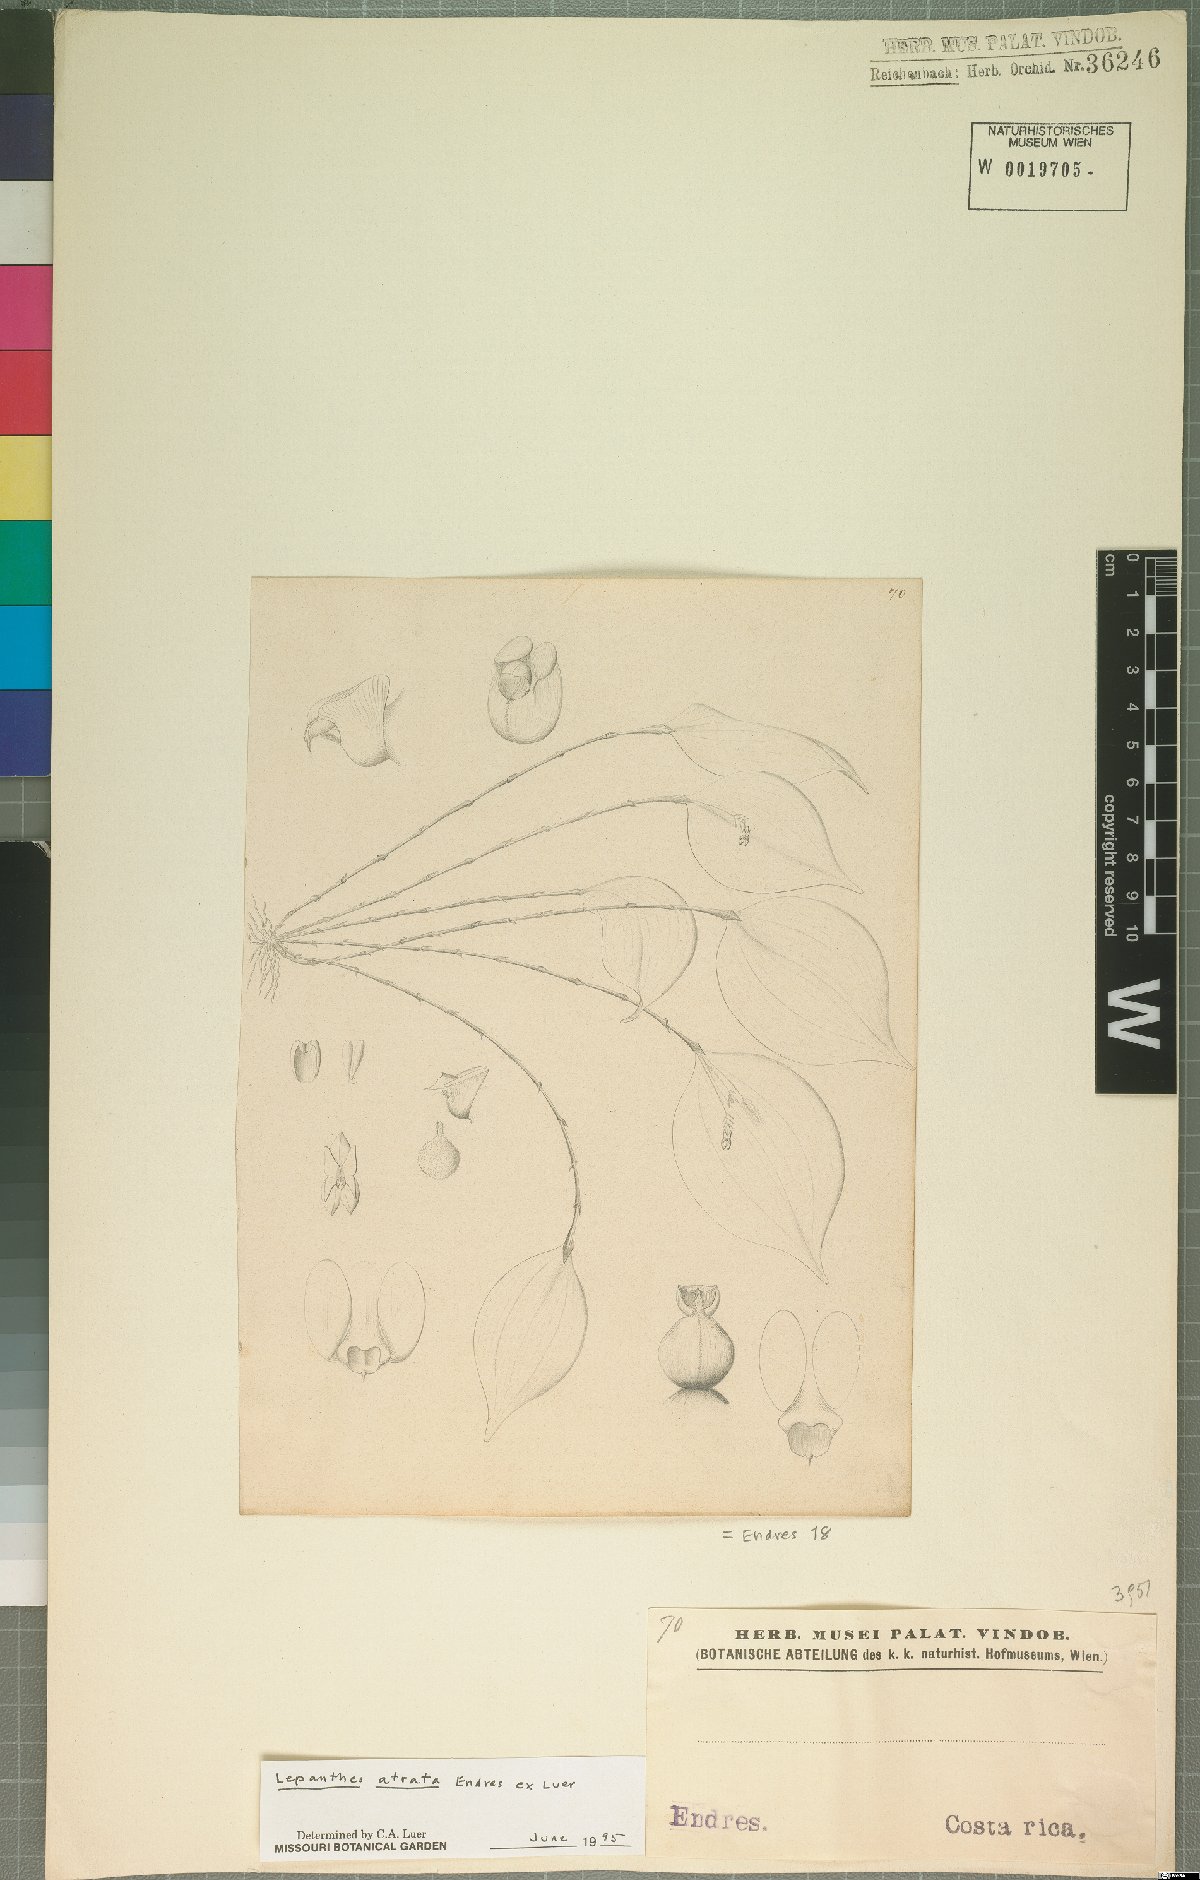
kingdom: Plantae
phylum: Tracheophyta
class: Liliopsida
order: Asparagales
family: Orchidaceae
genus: Lepanthes
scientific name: Lepanthes atrata
